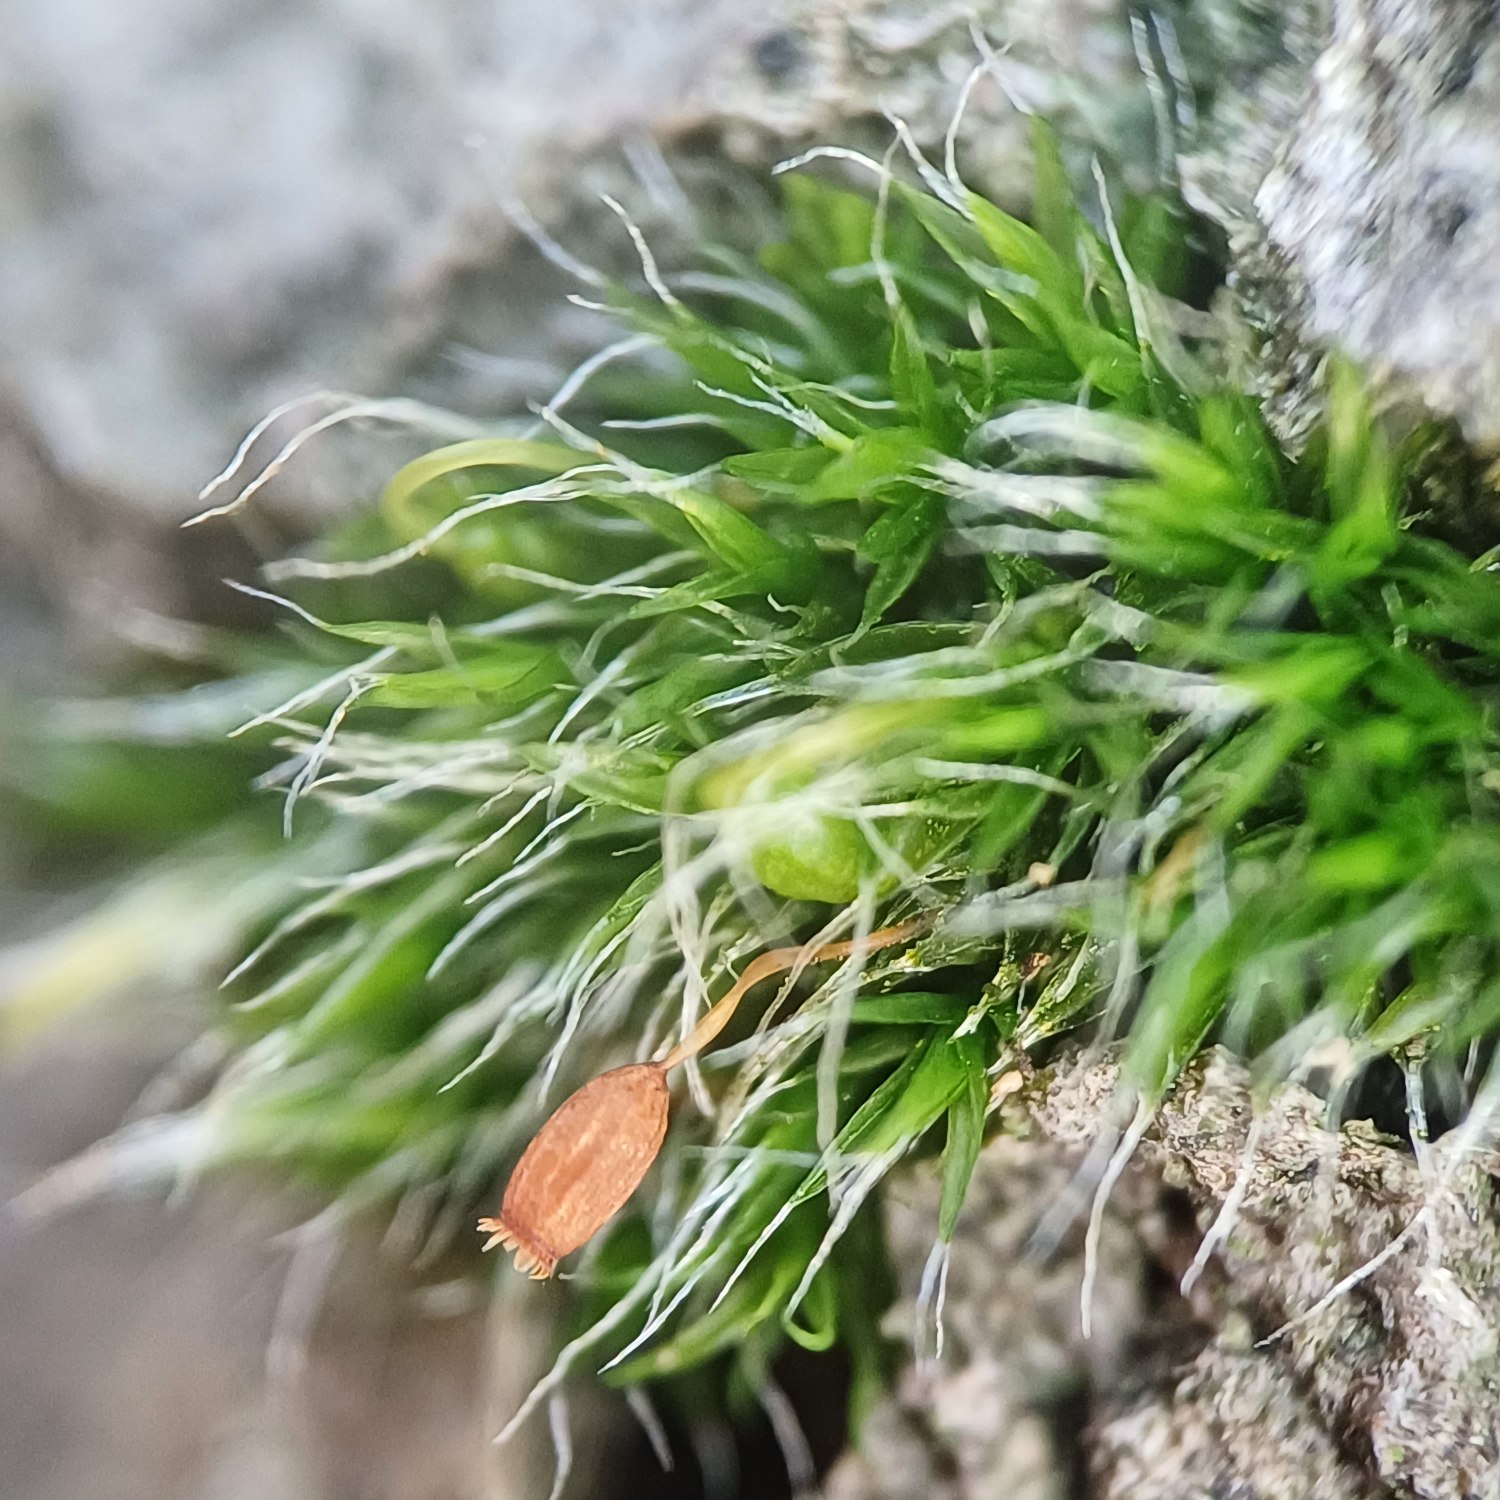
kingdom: Plantae
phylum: Bryophyta
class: Bryopsida
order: Grimmiales
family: Grimmiaceae
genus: Grimmia
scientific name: Grimmia pulvinata
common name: Pude-gråmos
